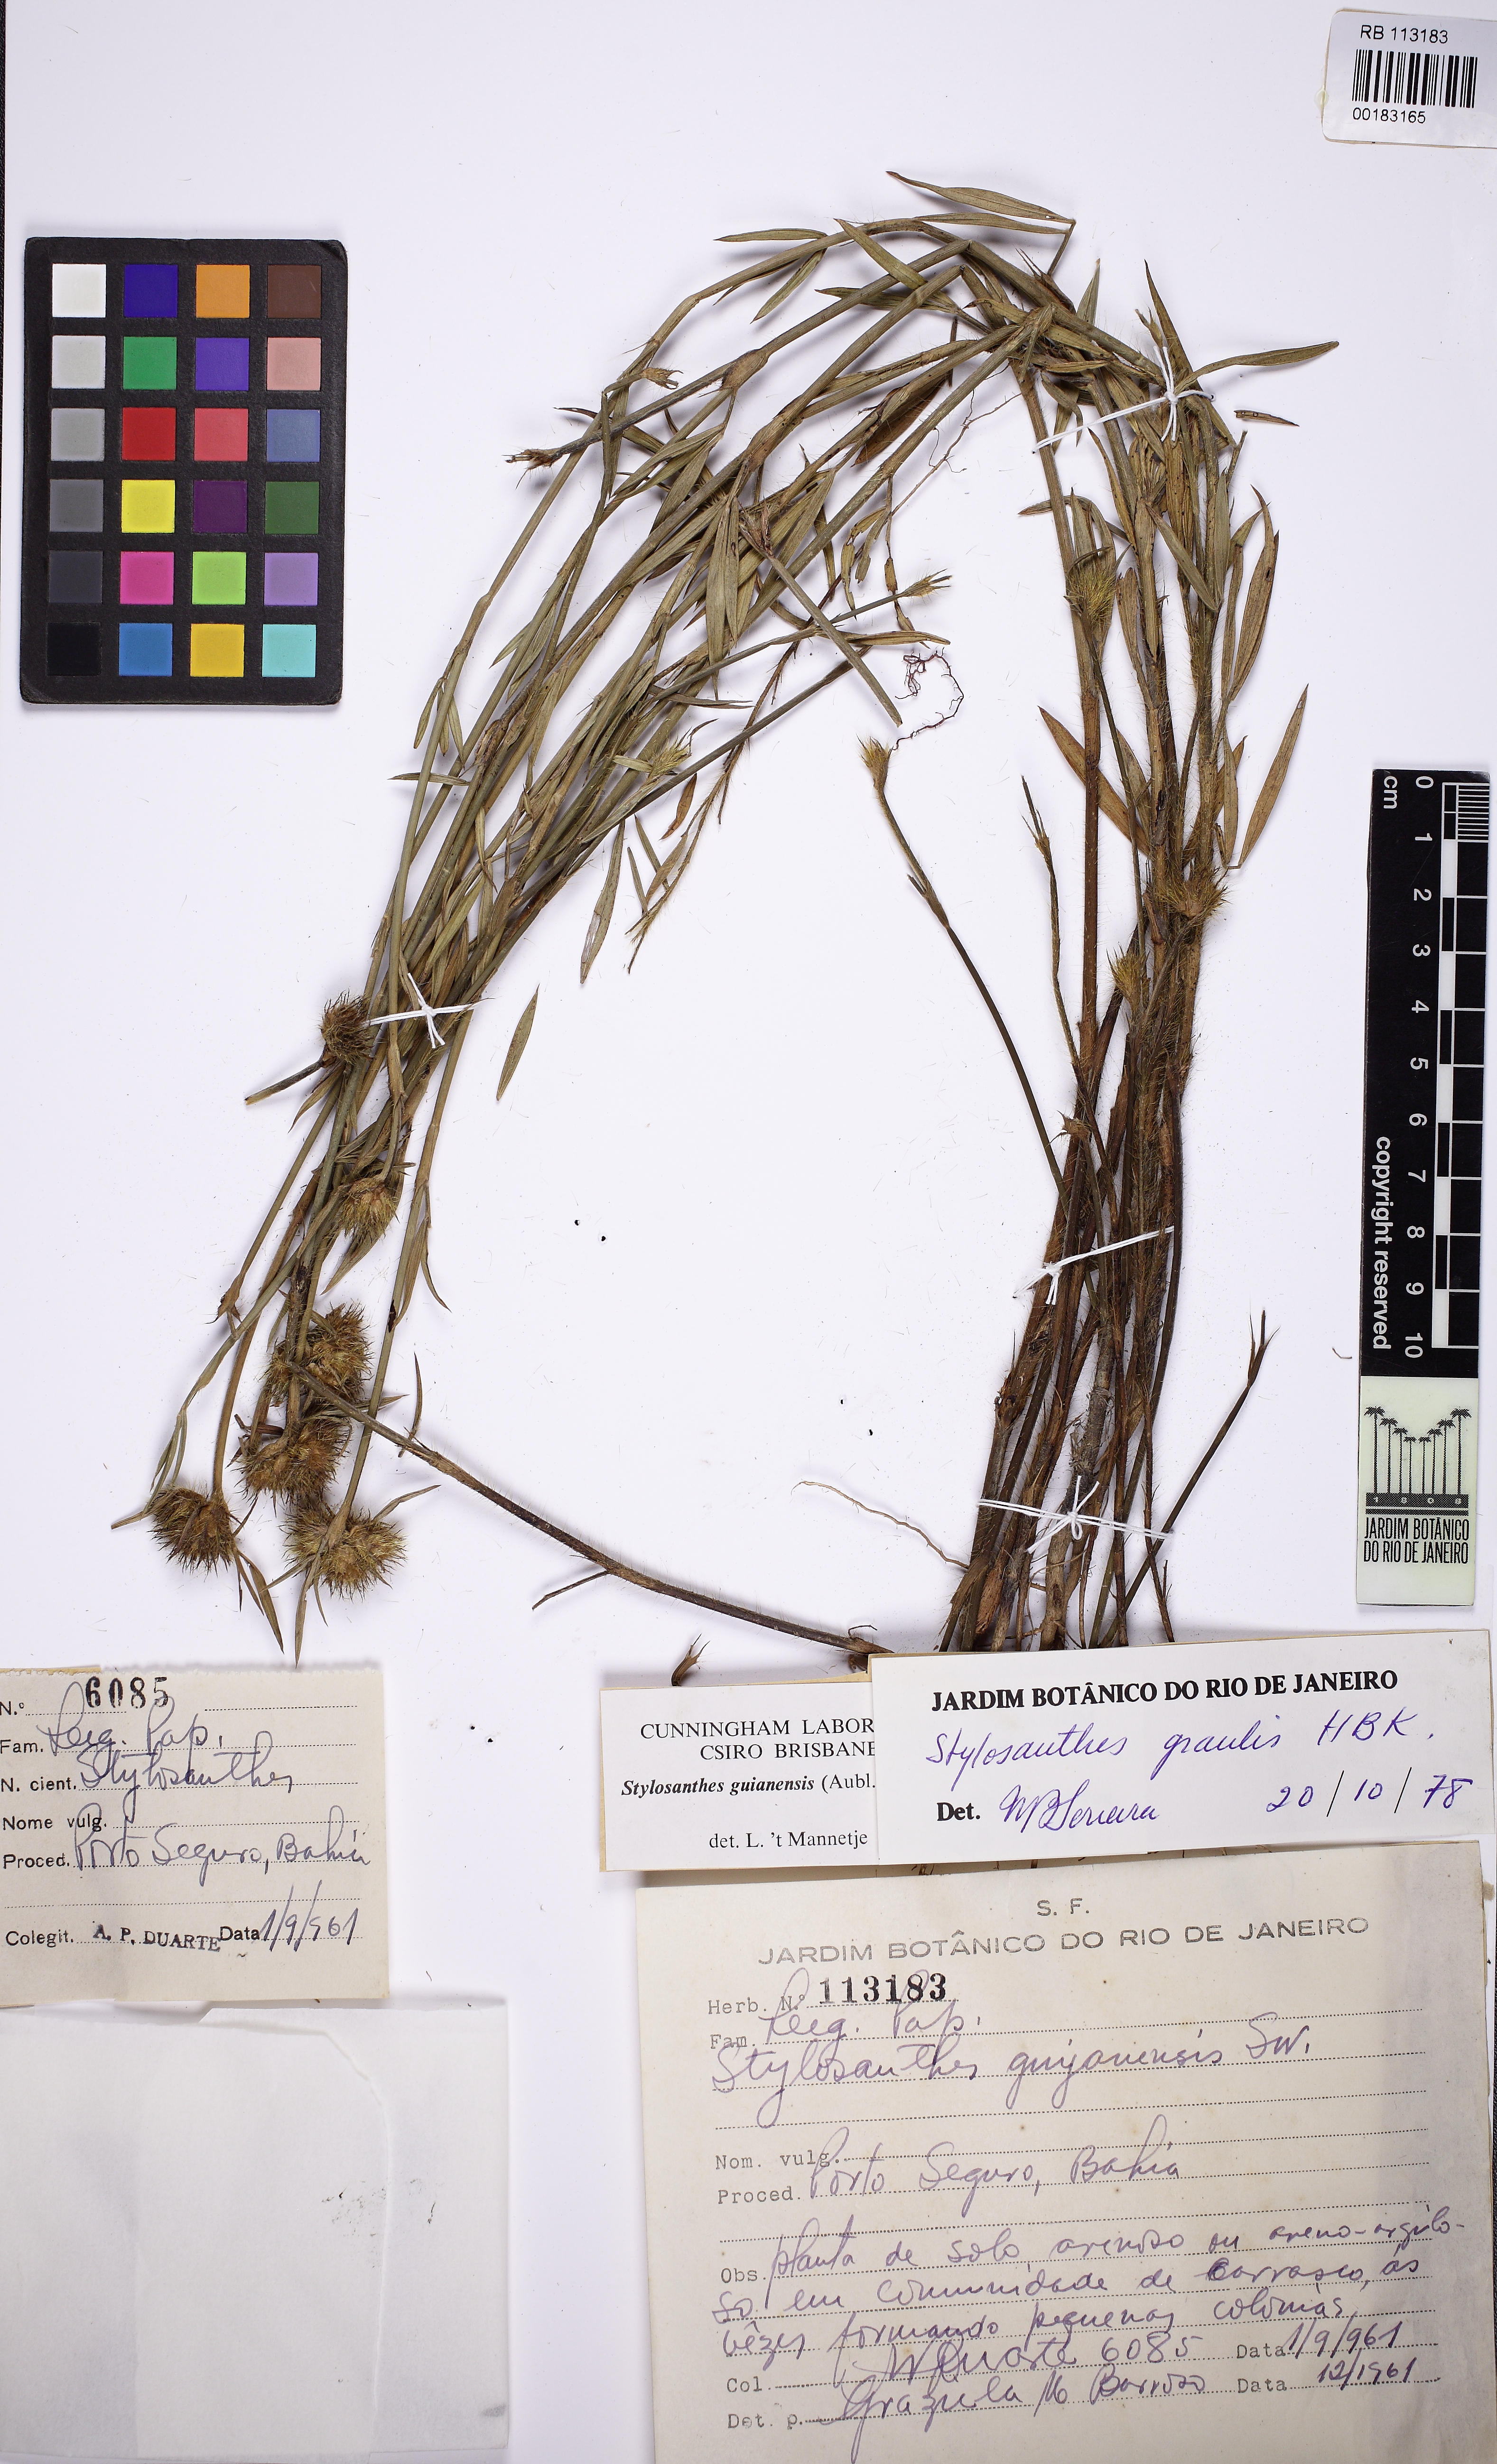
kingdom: Plantae
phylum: Tracheophyta
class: Magnoliopsida
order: Fabales
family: Fabaceae
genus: Stylosanthes
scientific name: Stylosanthes guianensis
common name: Pencil flower
